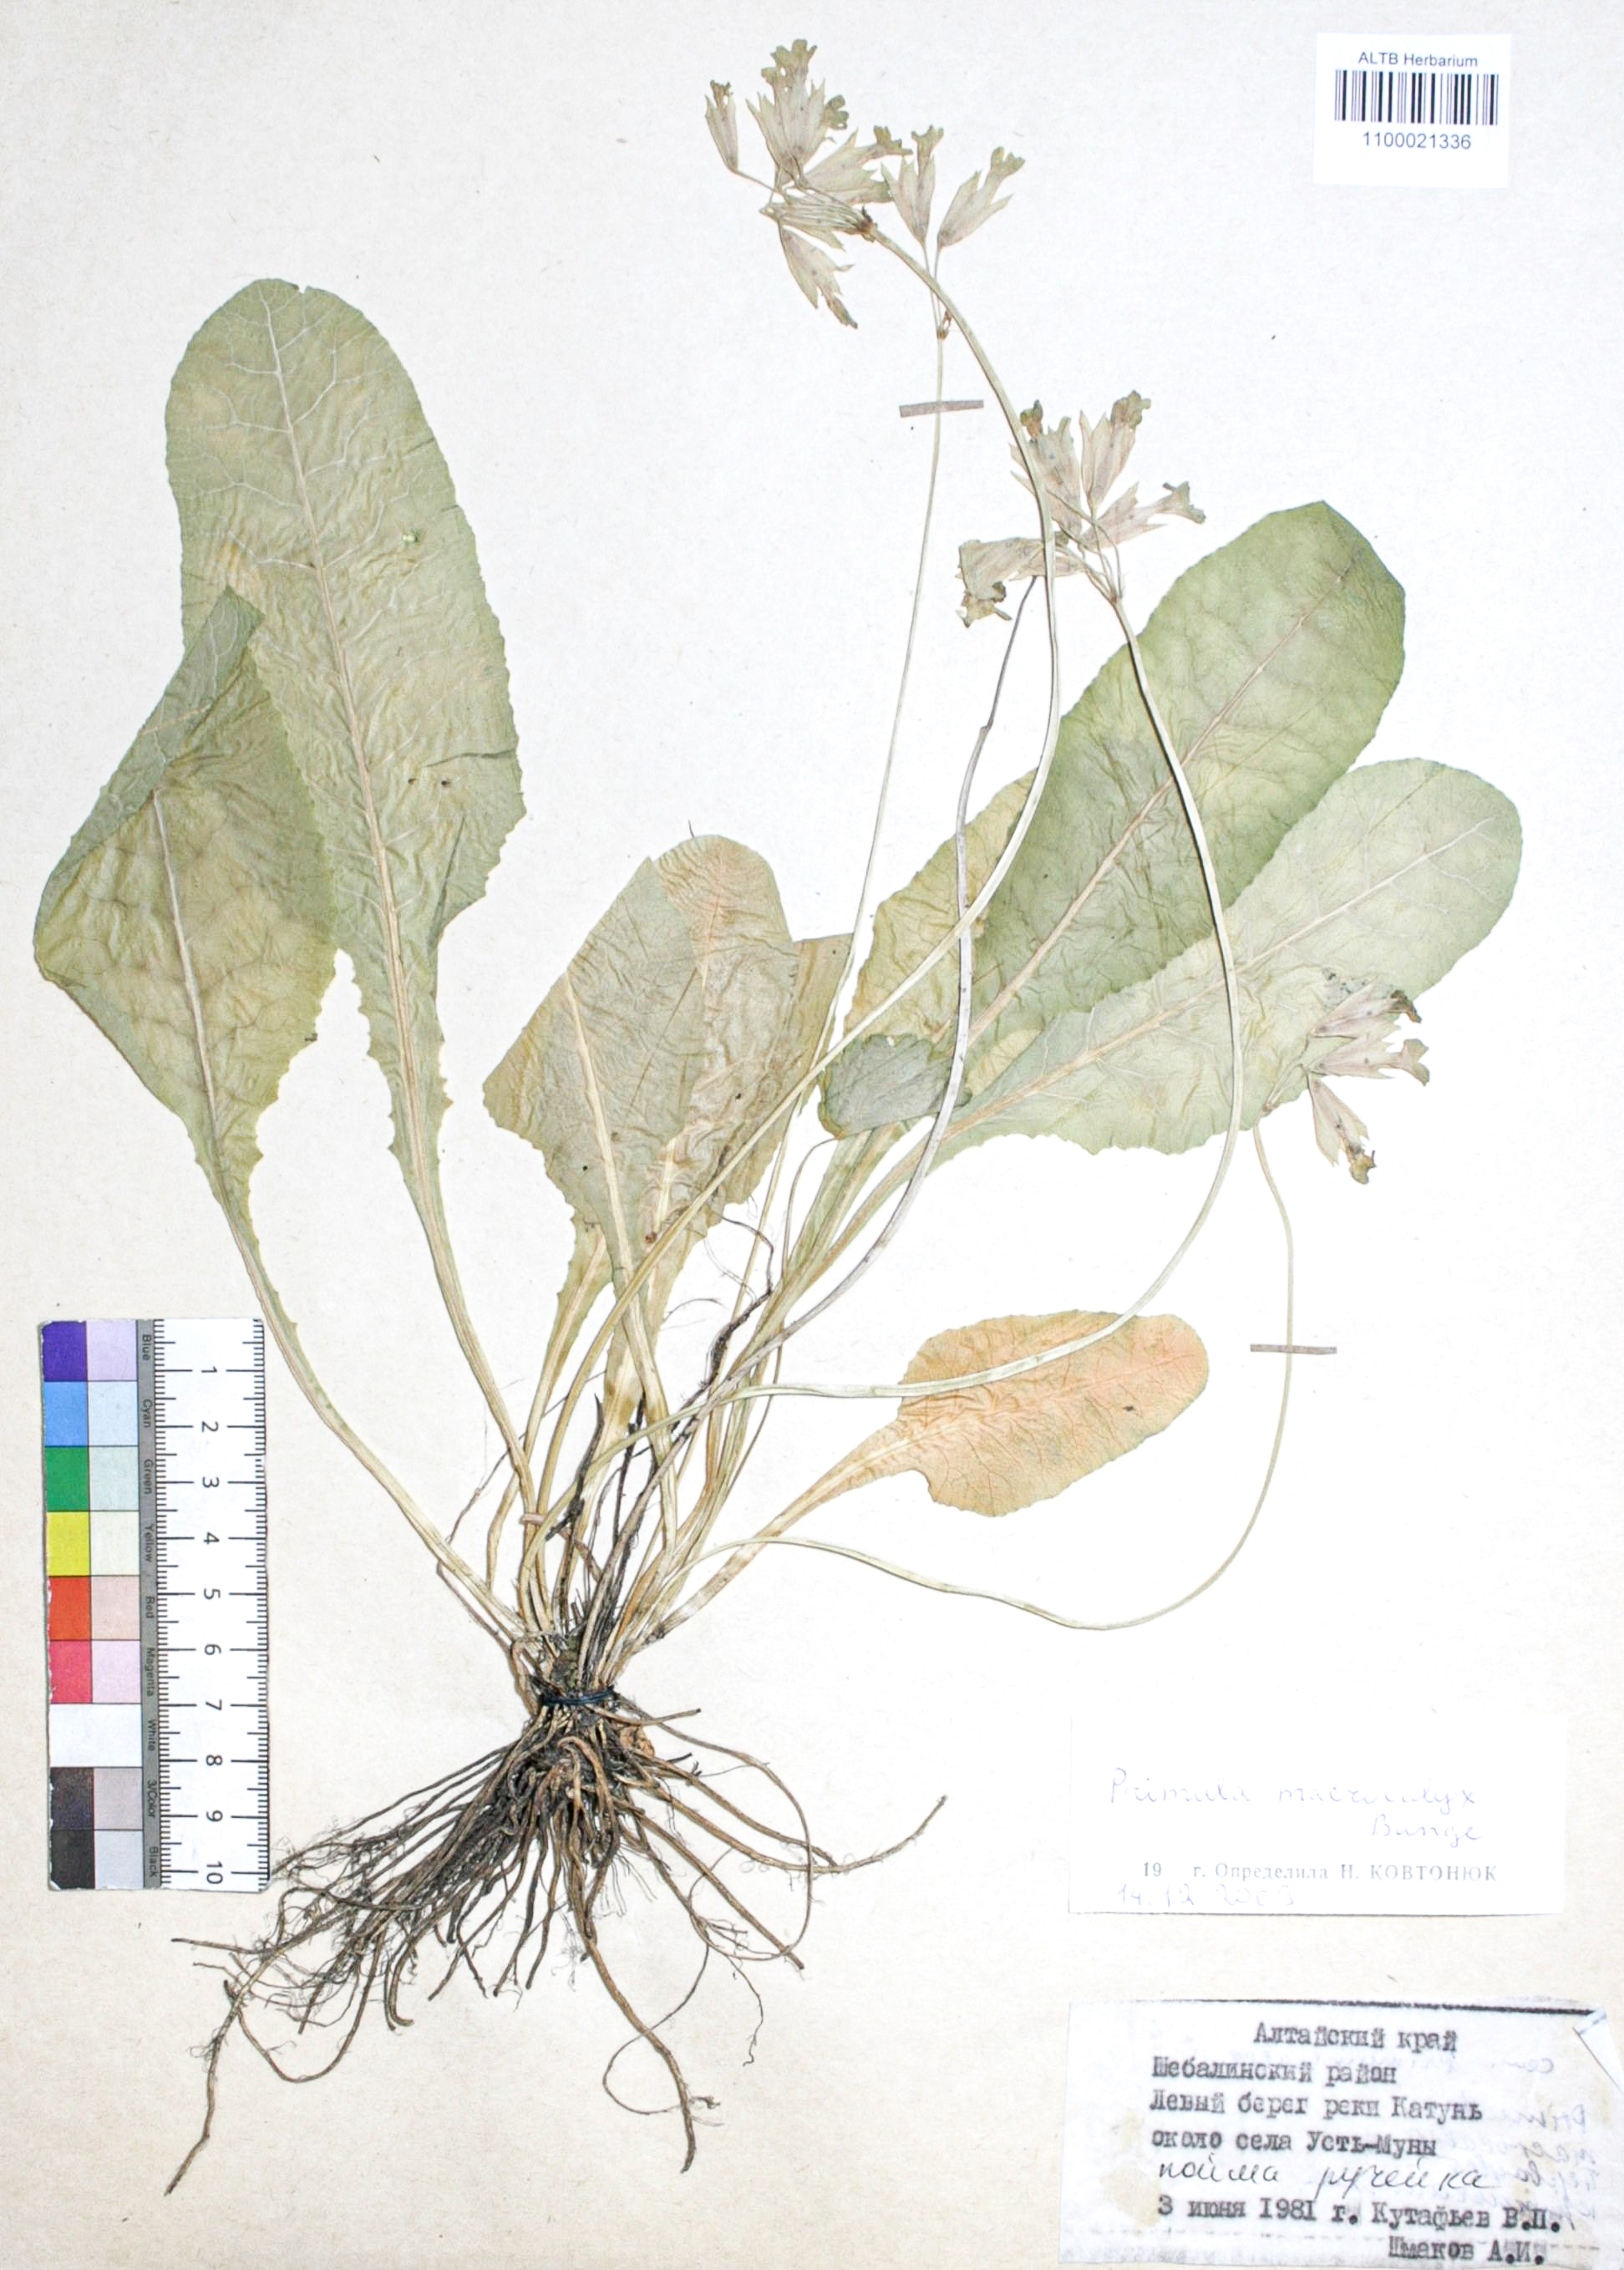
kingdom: Plantae
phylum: Tracheophyta
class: Magnoliopsida
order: Ericales
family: Primulaceae
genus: Primula
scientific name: Primula veris
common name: Cowslip
